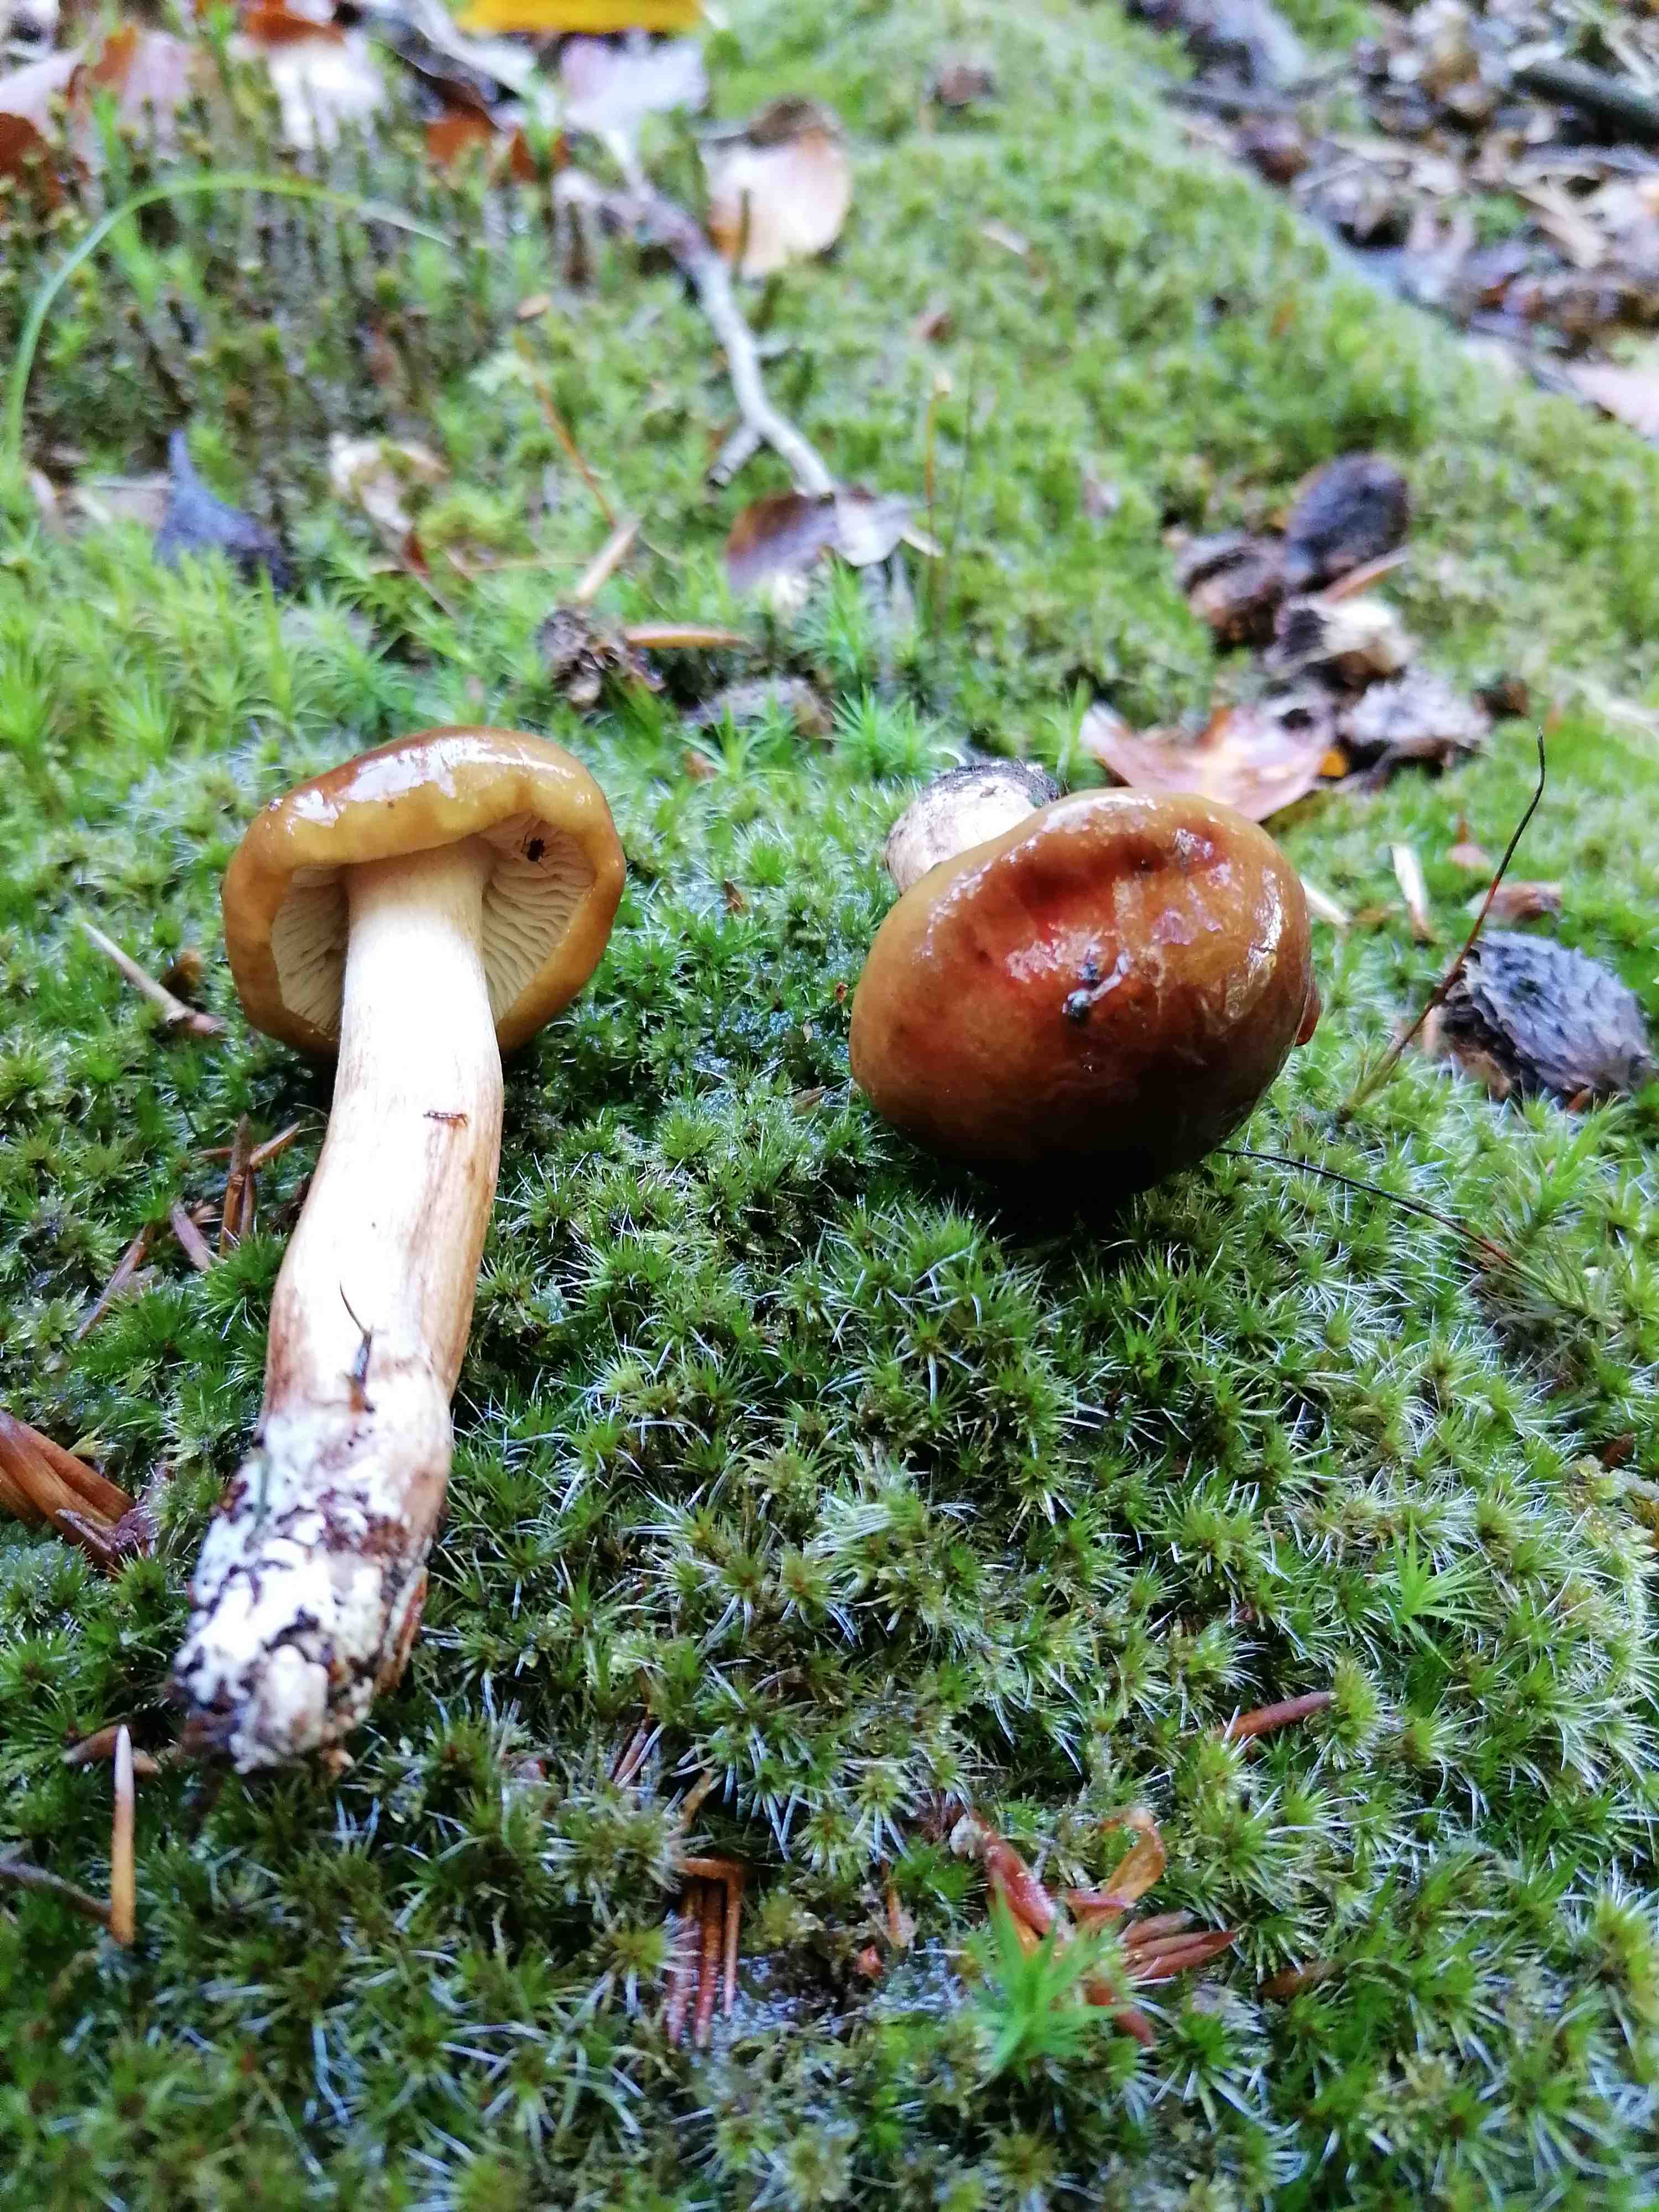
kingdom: Fungi
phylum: Basidiomycota
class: Agaricomycetes
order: Agaricales
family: Tricholomataceae
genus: Tricholoma
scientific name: Tricholoma ustale
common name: sveden ridderhat
